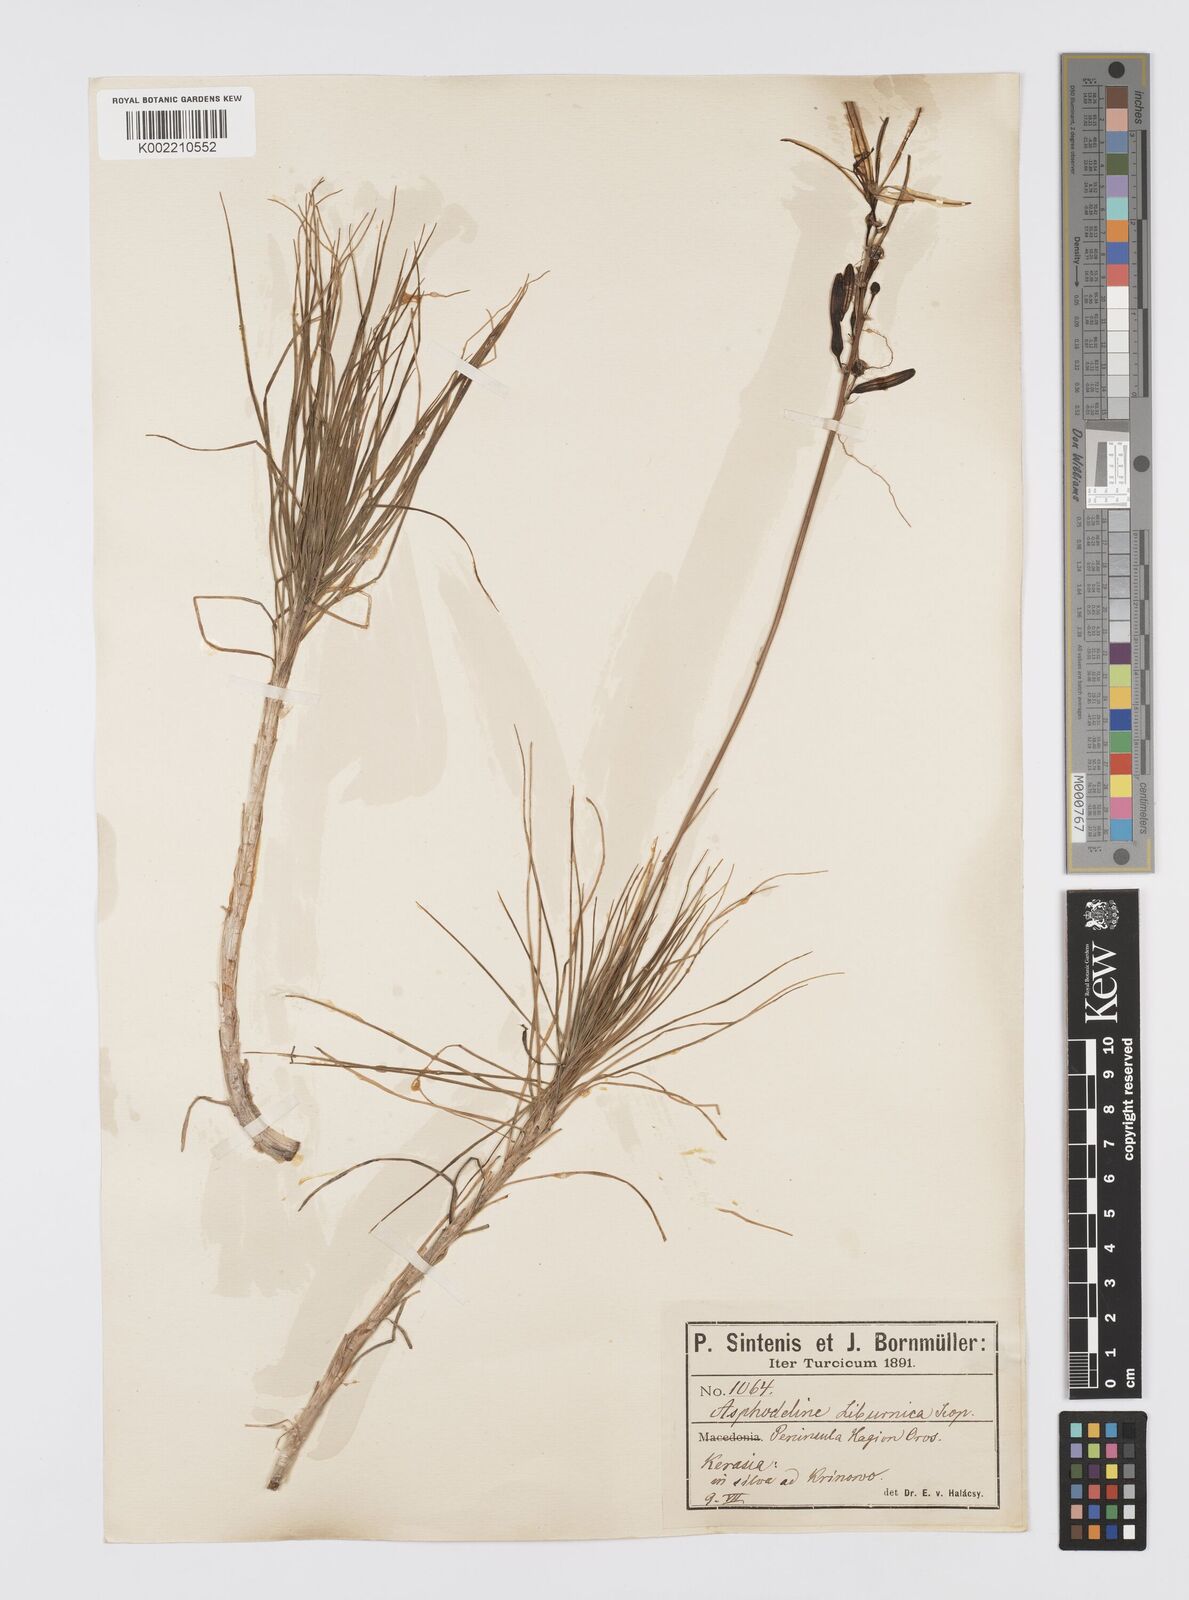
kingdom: Plantae
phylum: Tracheophyta
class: Liliopsida
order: Asparagales
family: Asphodelaceae
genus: Asphodeline
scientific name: Asphodeline liburnica
